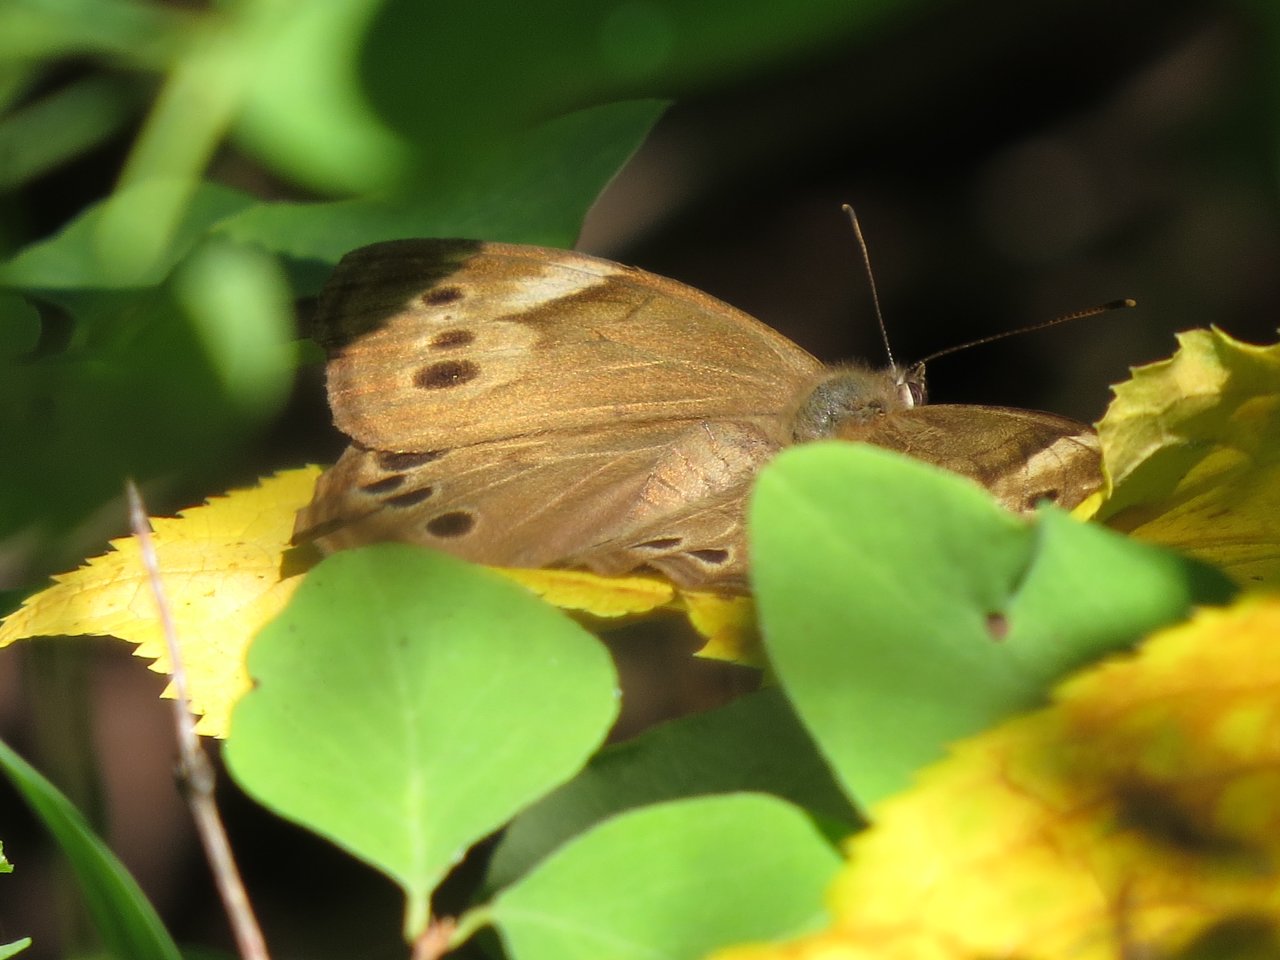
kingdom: Animalia
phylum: Arthropoda
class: Insecta
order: Lepidoptera
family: Nymphalidae
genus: Lethe
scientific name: Lethe anthedon
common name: Northern Pearly-Eye
